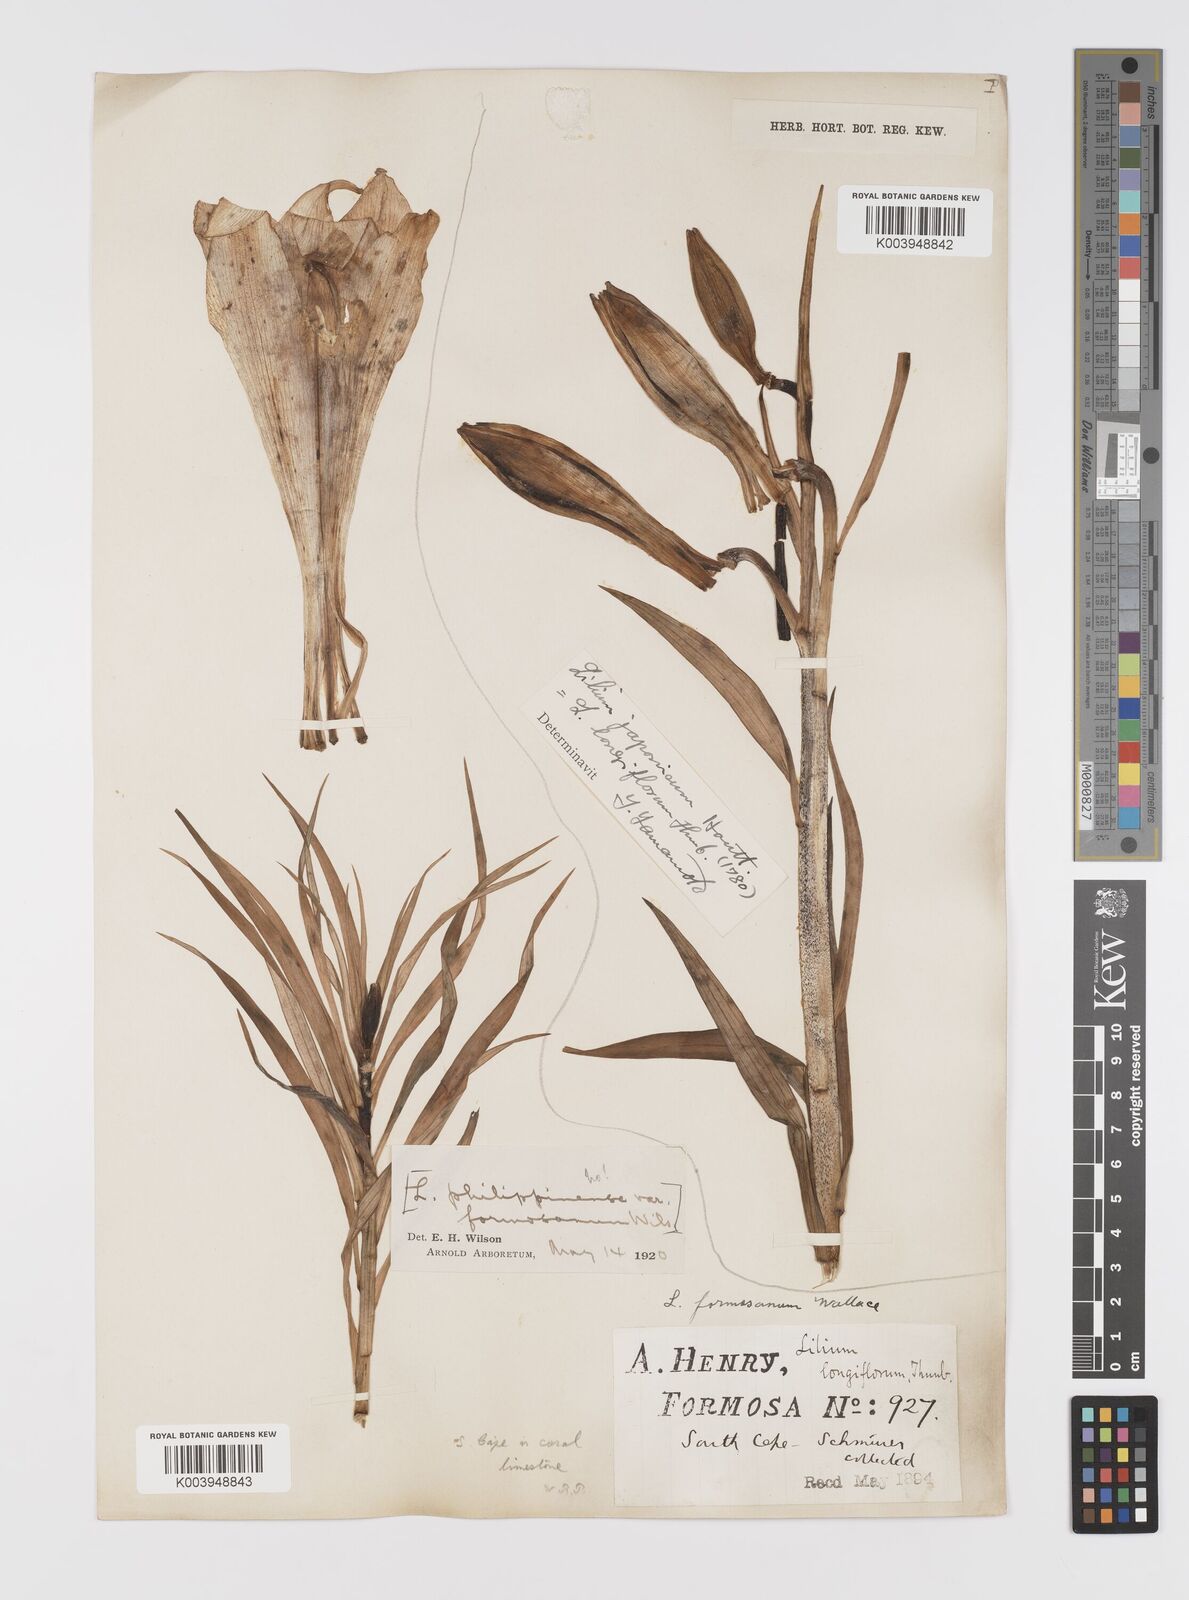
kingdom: Plantae
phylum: Tracheophyta
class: Liliopsida
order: Liliales
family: Liliaceae
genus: Lilium
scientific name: Lilium formosanum
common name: Formosa lily
